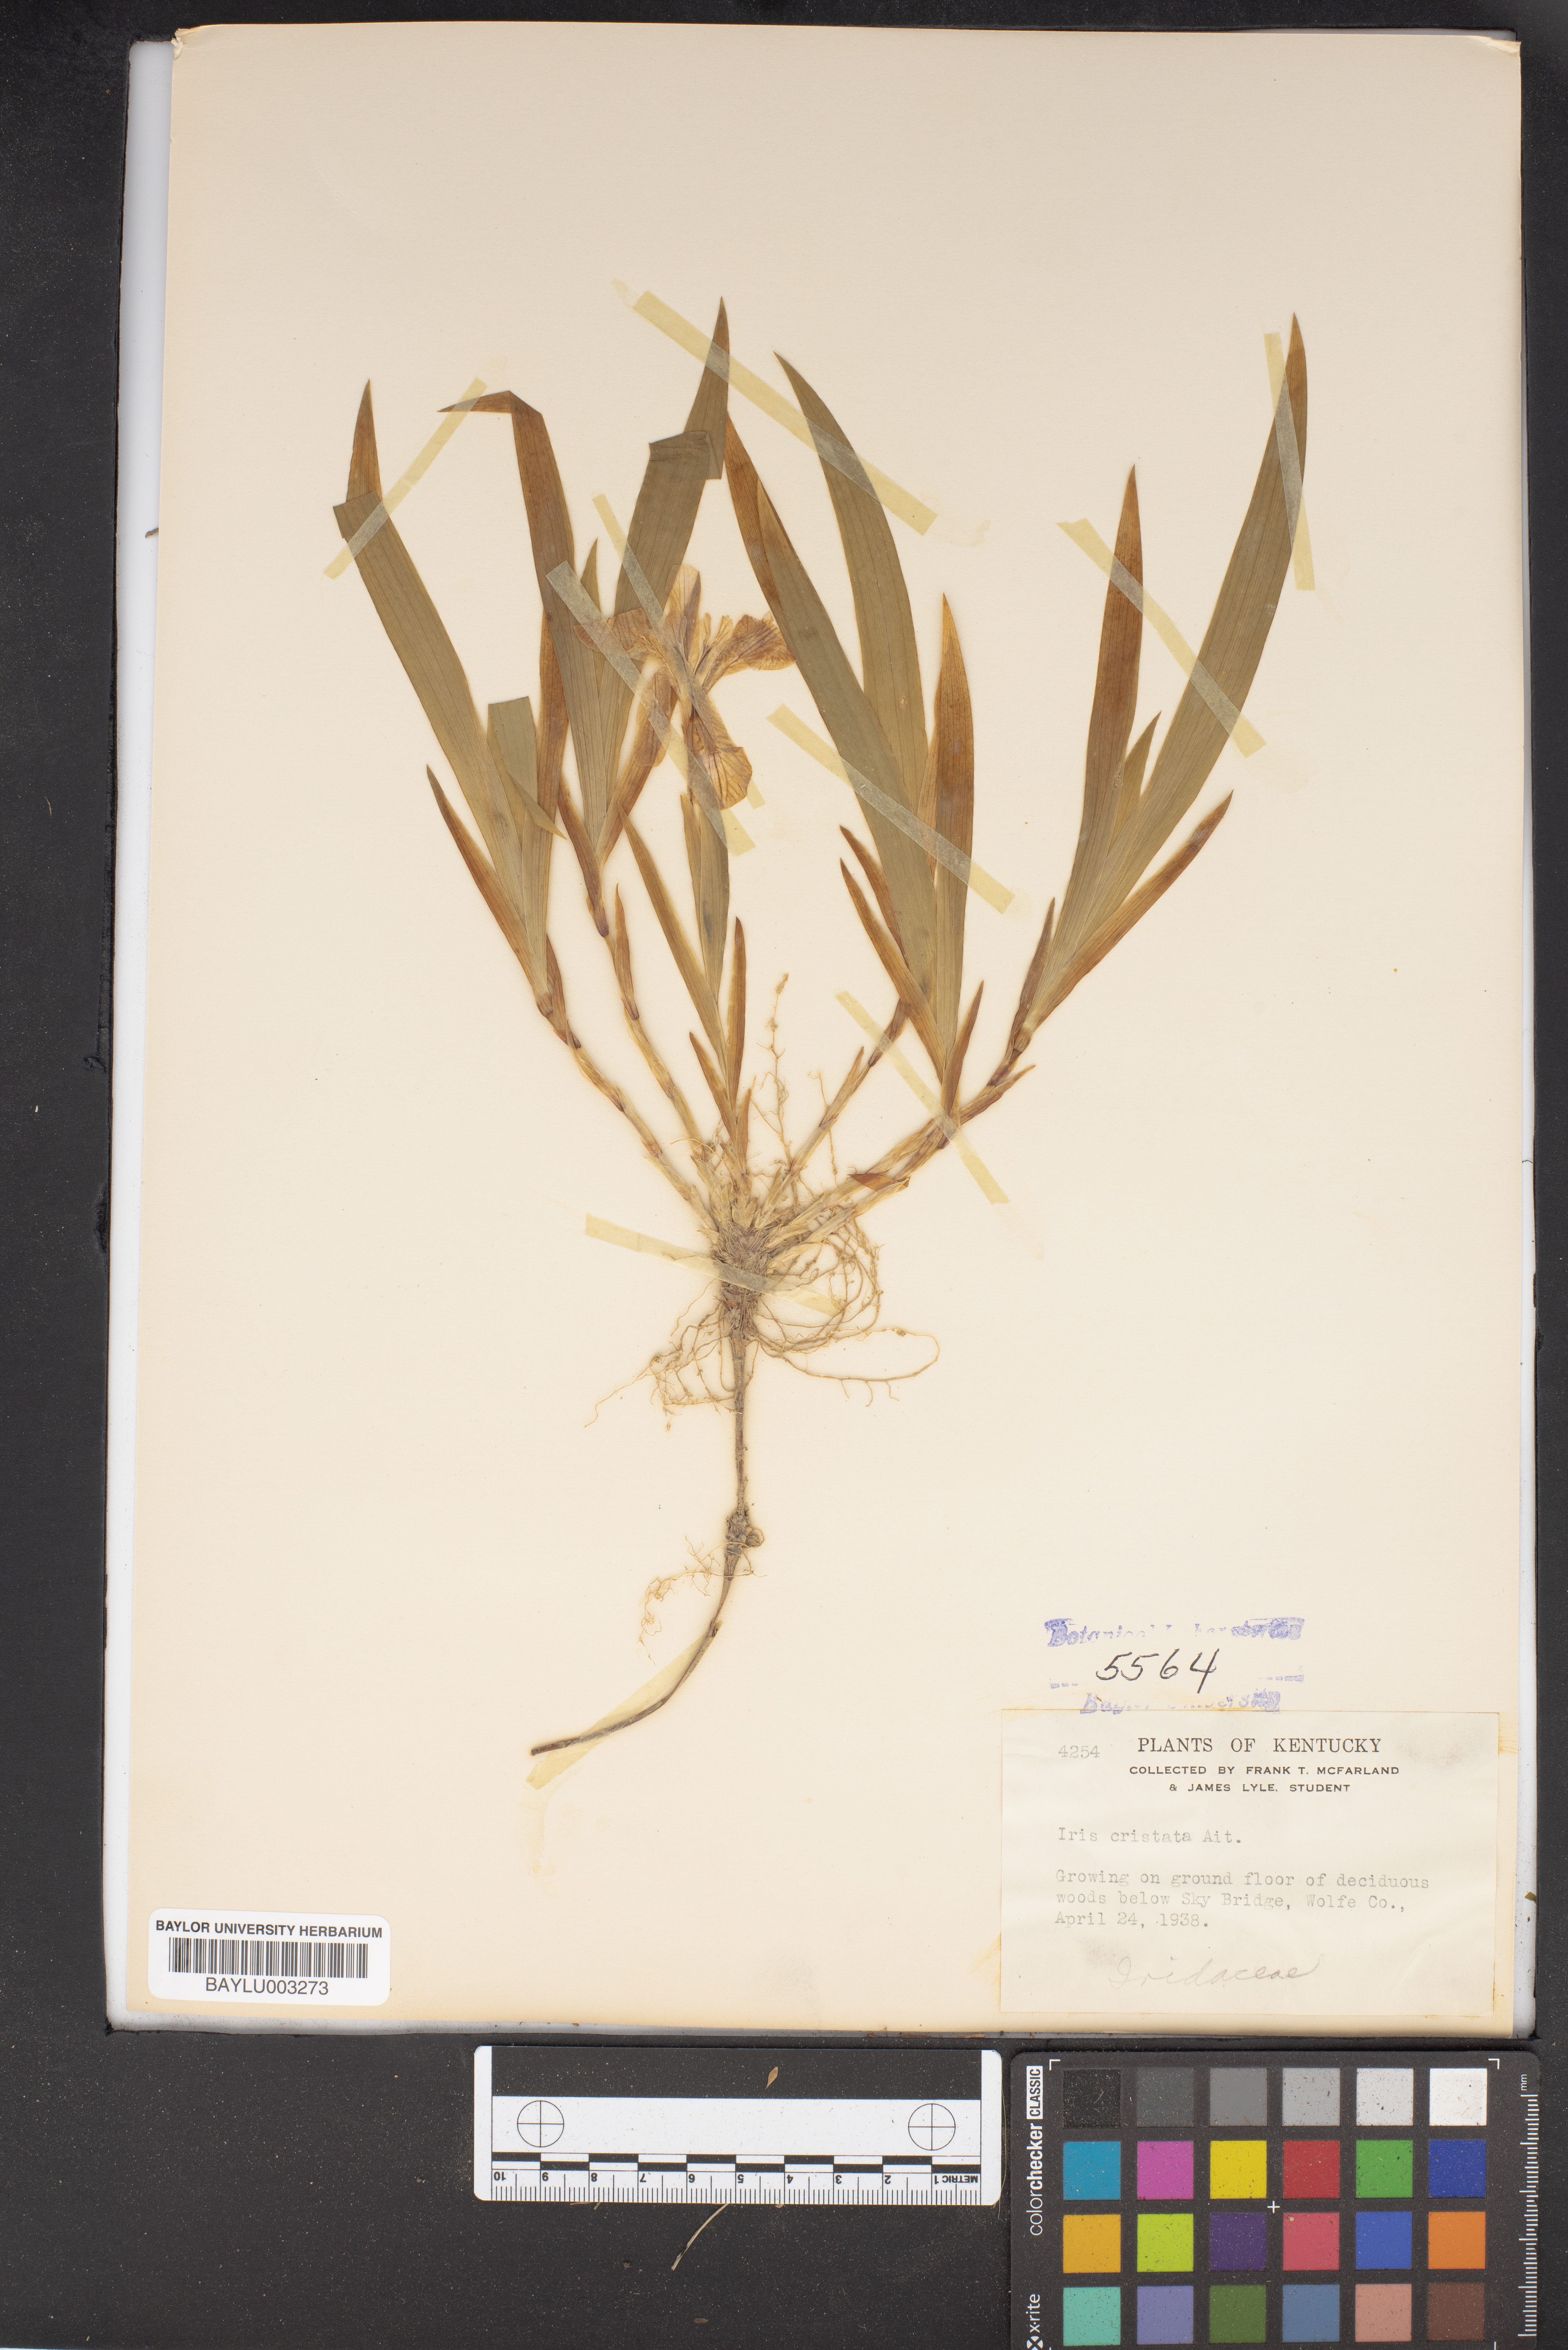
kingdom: Plantae
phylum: Tracheophyta
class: Liliopsida
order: Asparagales
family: Iridaceae
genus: Iris
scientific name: Iris cristata
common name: Crested iris
